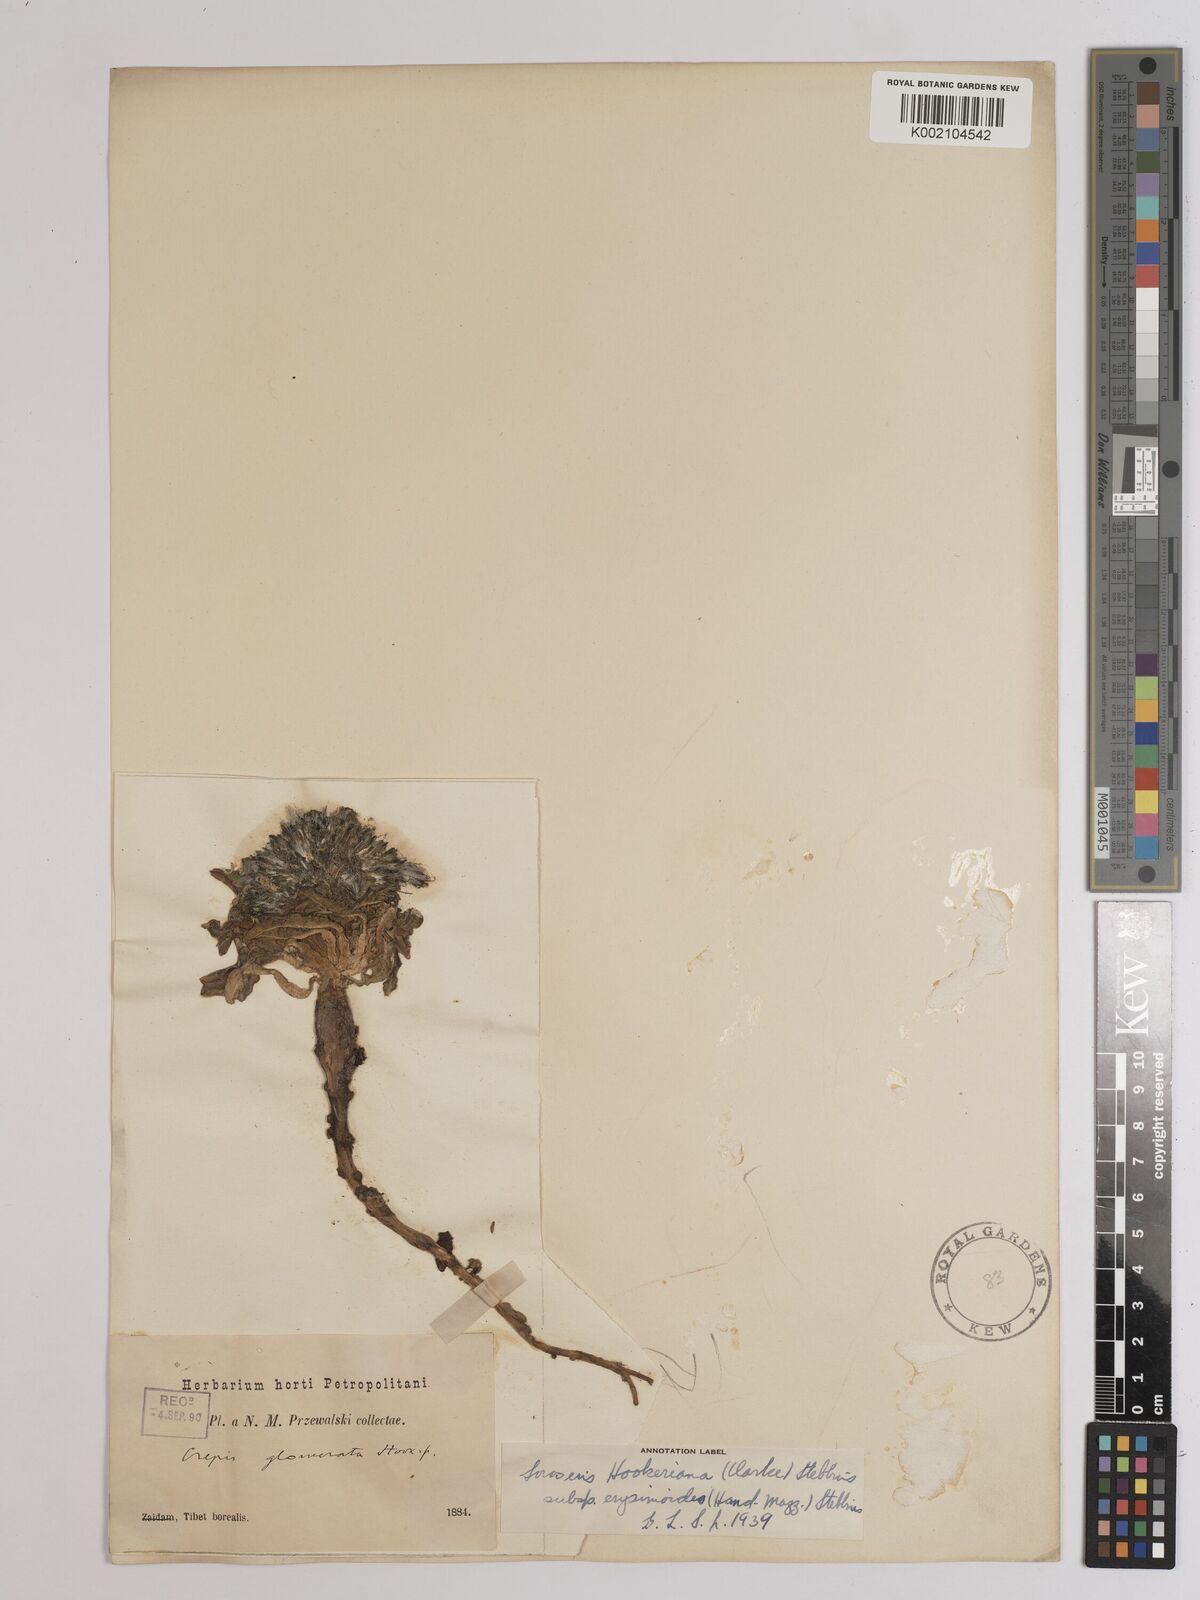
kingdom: Plantae
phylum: Tracheophyta
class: Magnoliopsida
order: Asterales
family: Asteraceae
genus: Soroseris
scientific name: Soroseris hookeriana
